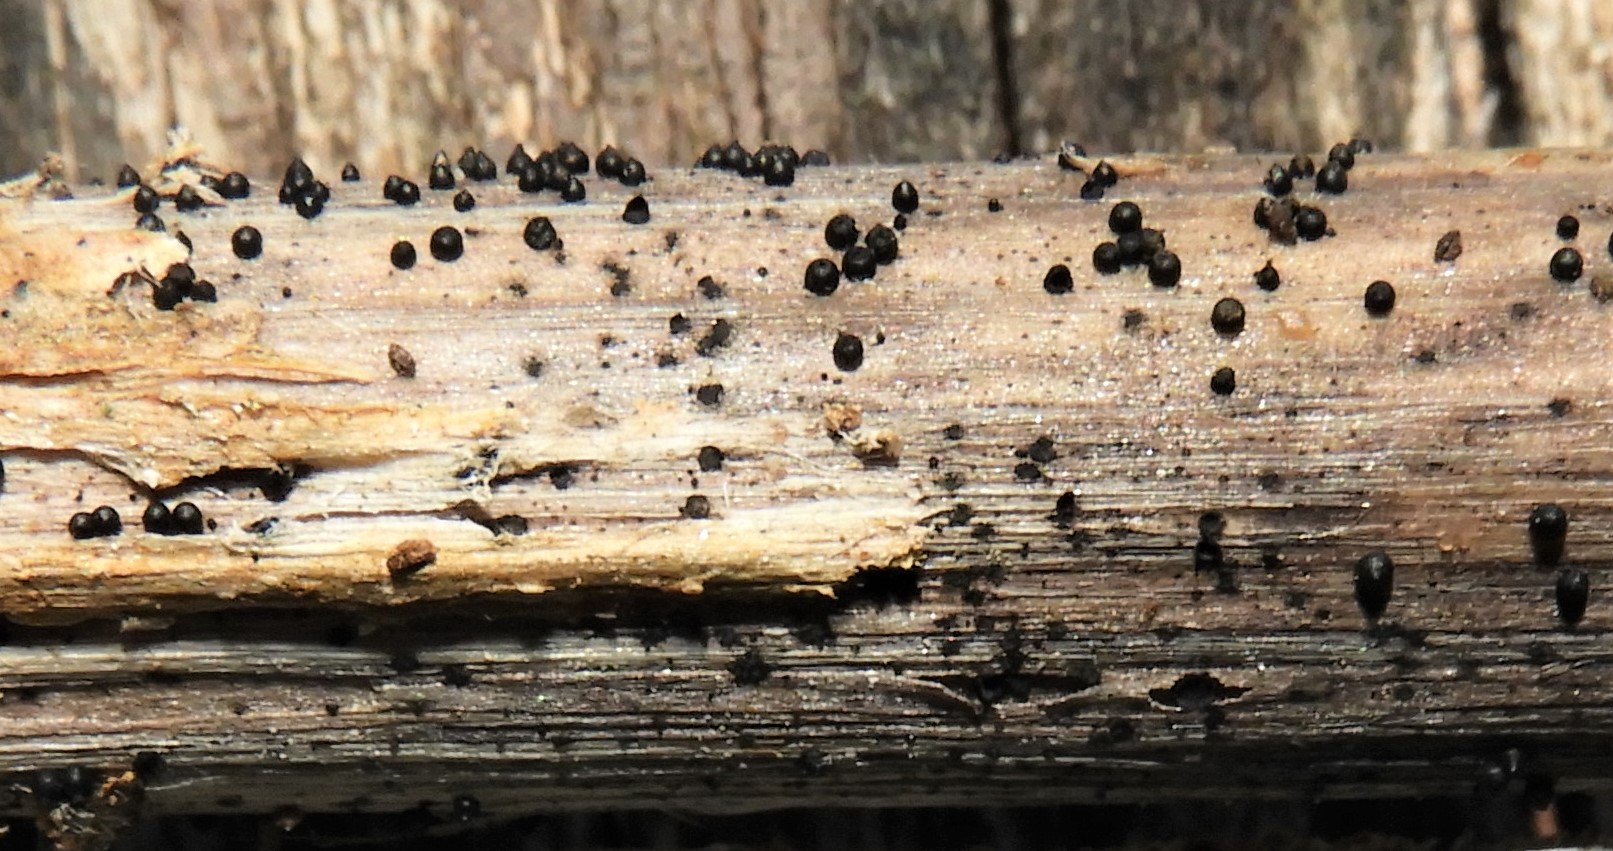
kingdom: Fungi
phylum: Ascomycota
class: Dothideomycetes
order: Pleosporales
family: Leptosphaeriaceae
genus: Leptosphaeria
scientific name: Leptosphaeria acuta
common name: spids kulkegle
